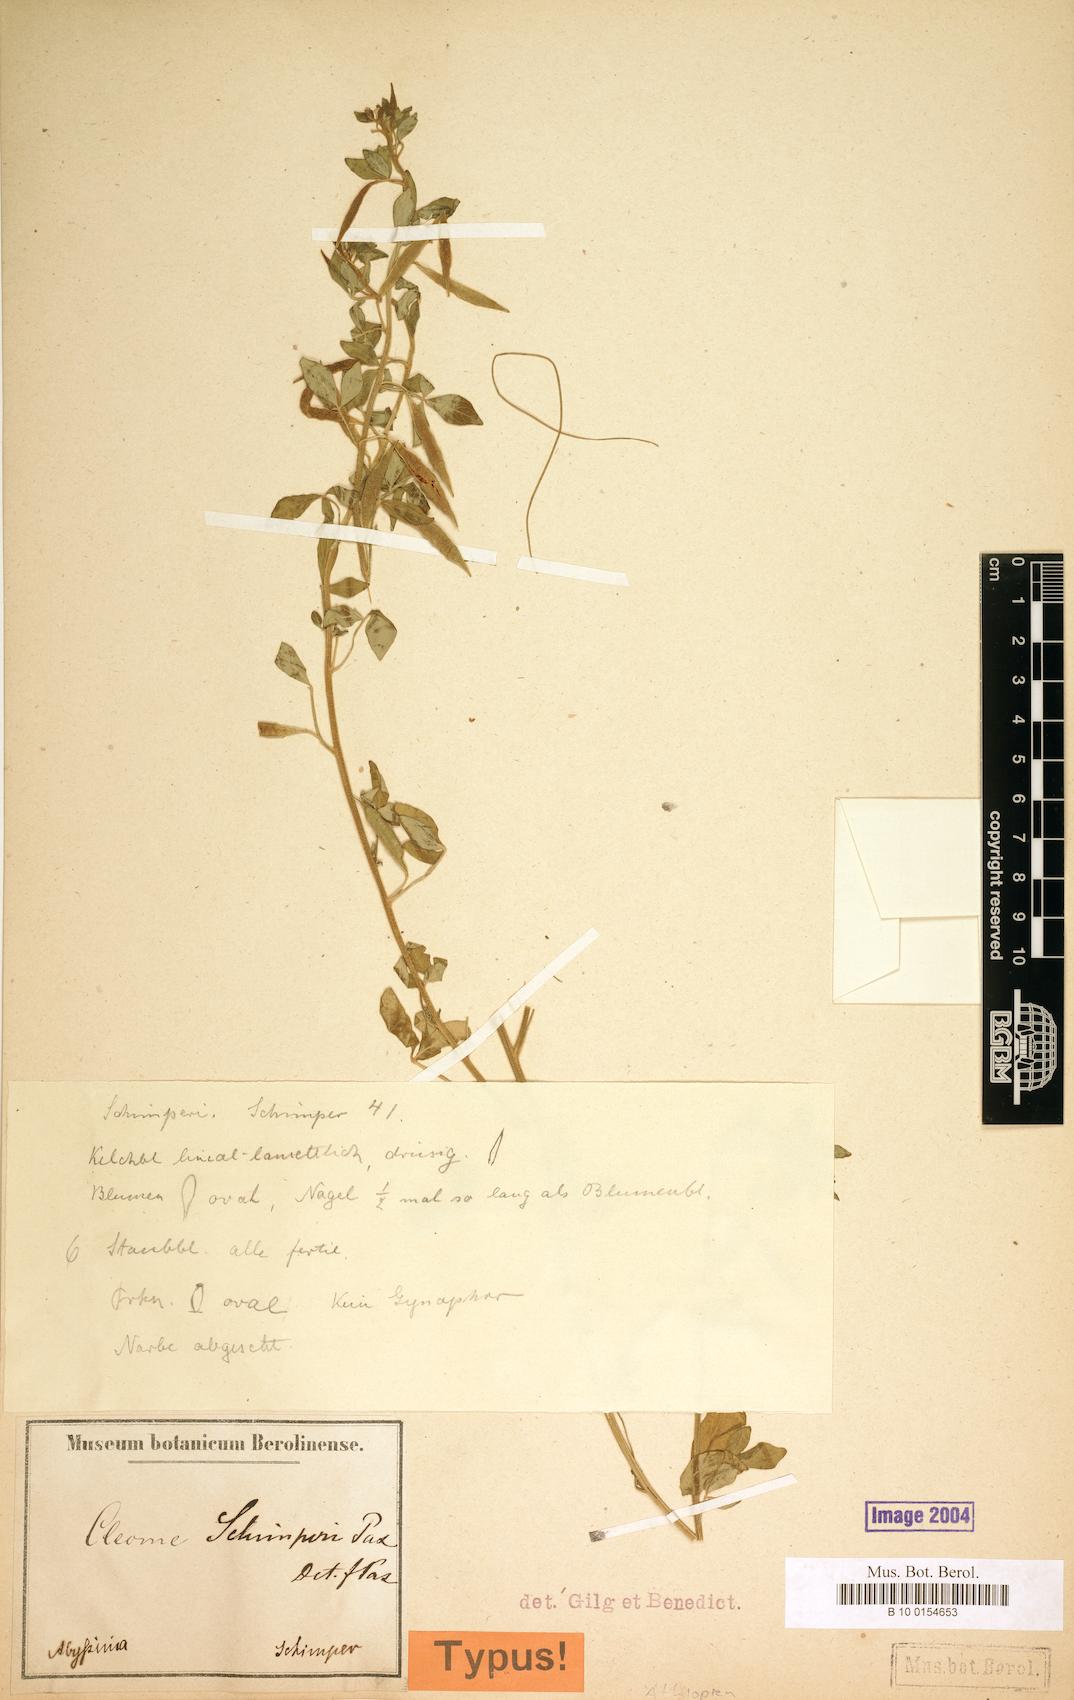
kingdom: Plantae
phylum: Tracheophyta
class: Magnoliopsida
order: Brassicales
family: Cleomaceae
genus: Sieruela
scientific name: Sieruela schimperi
